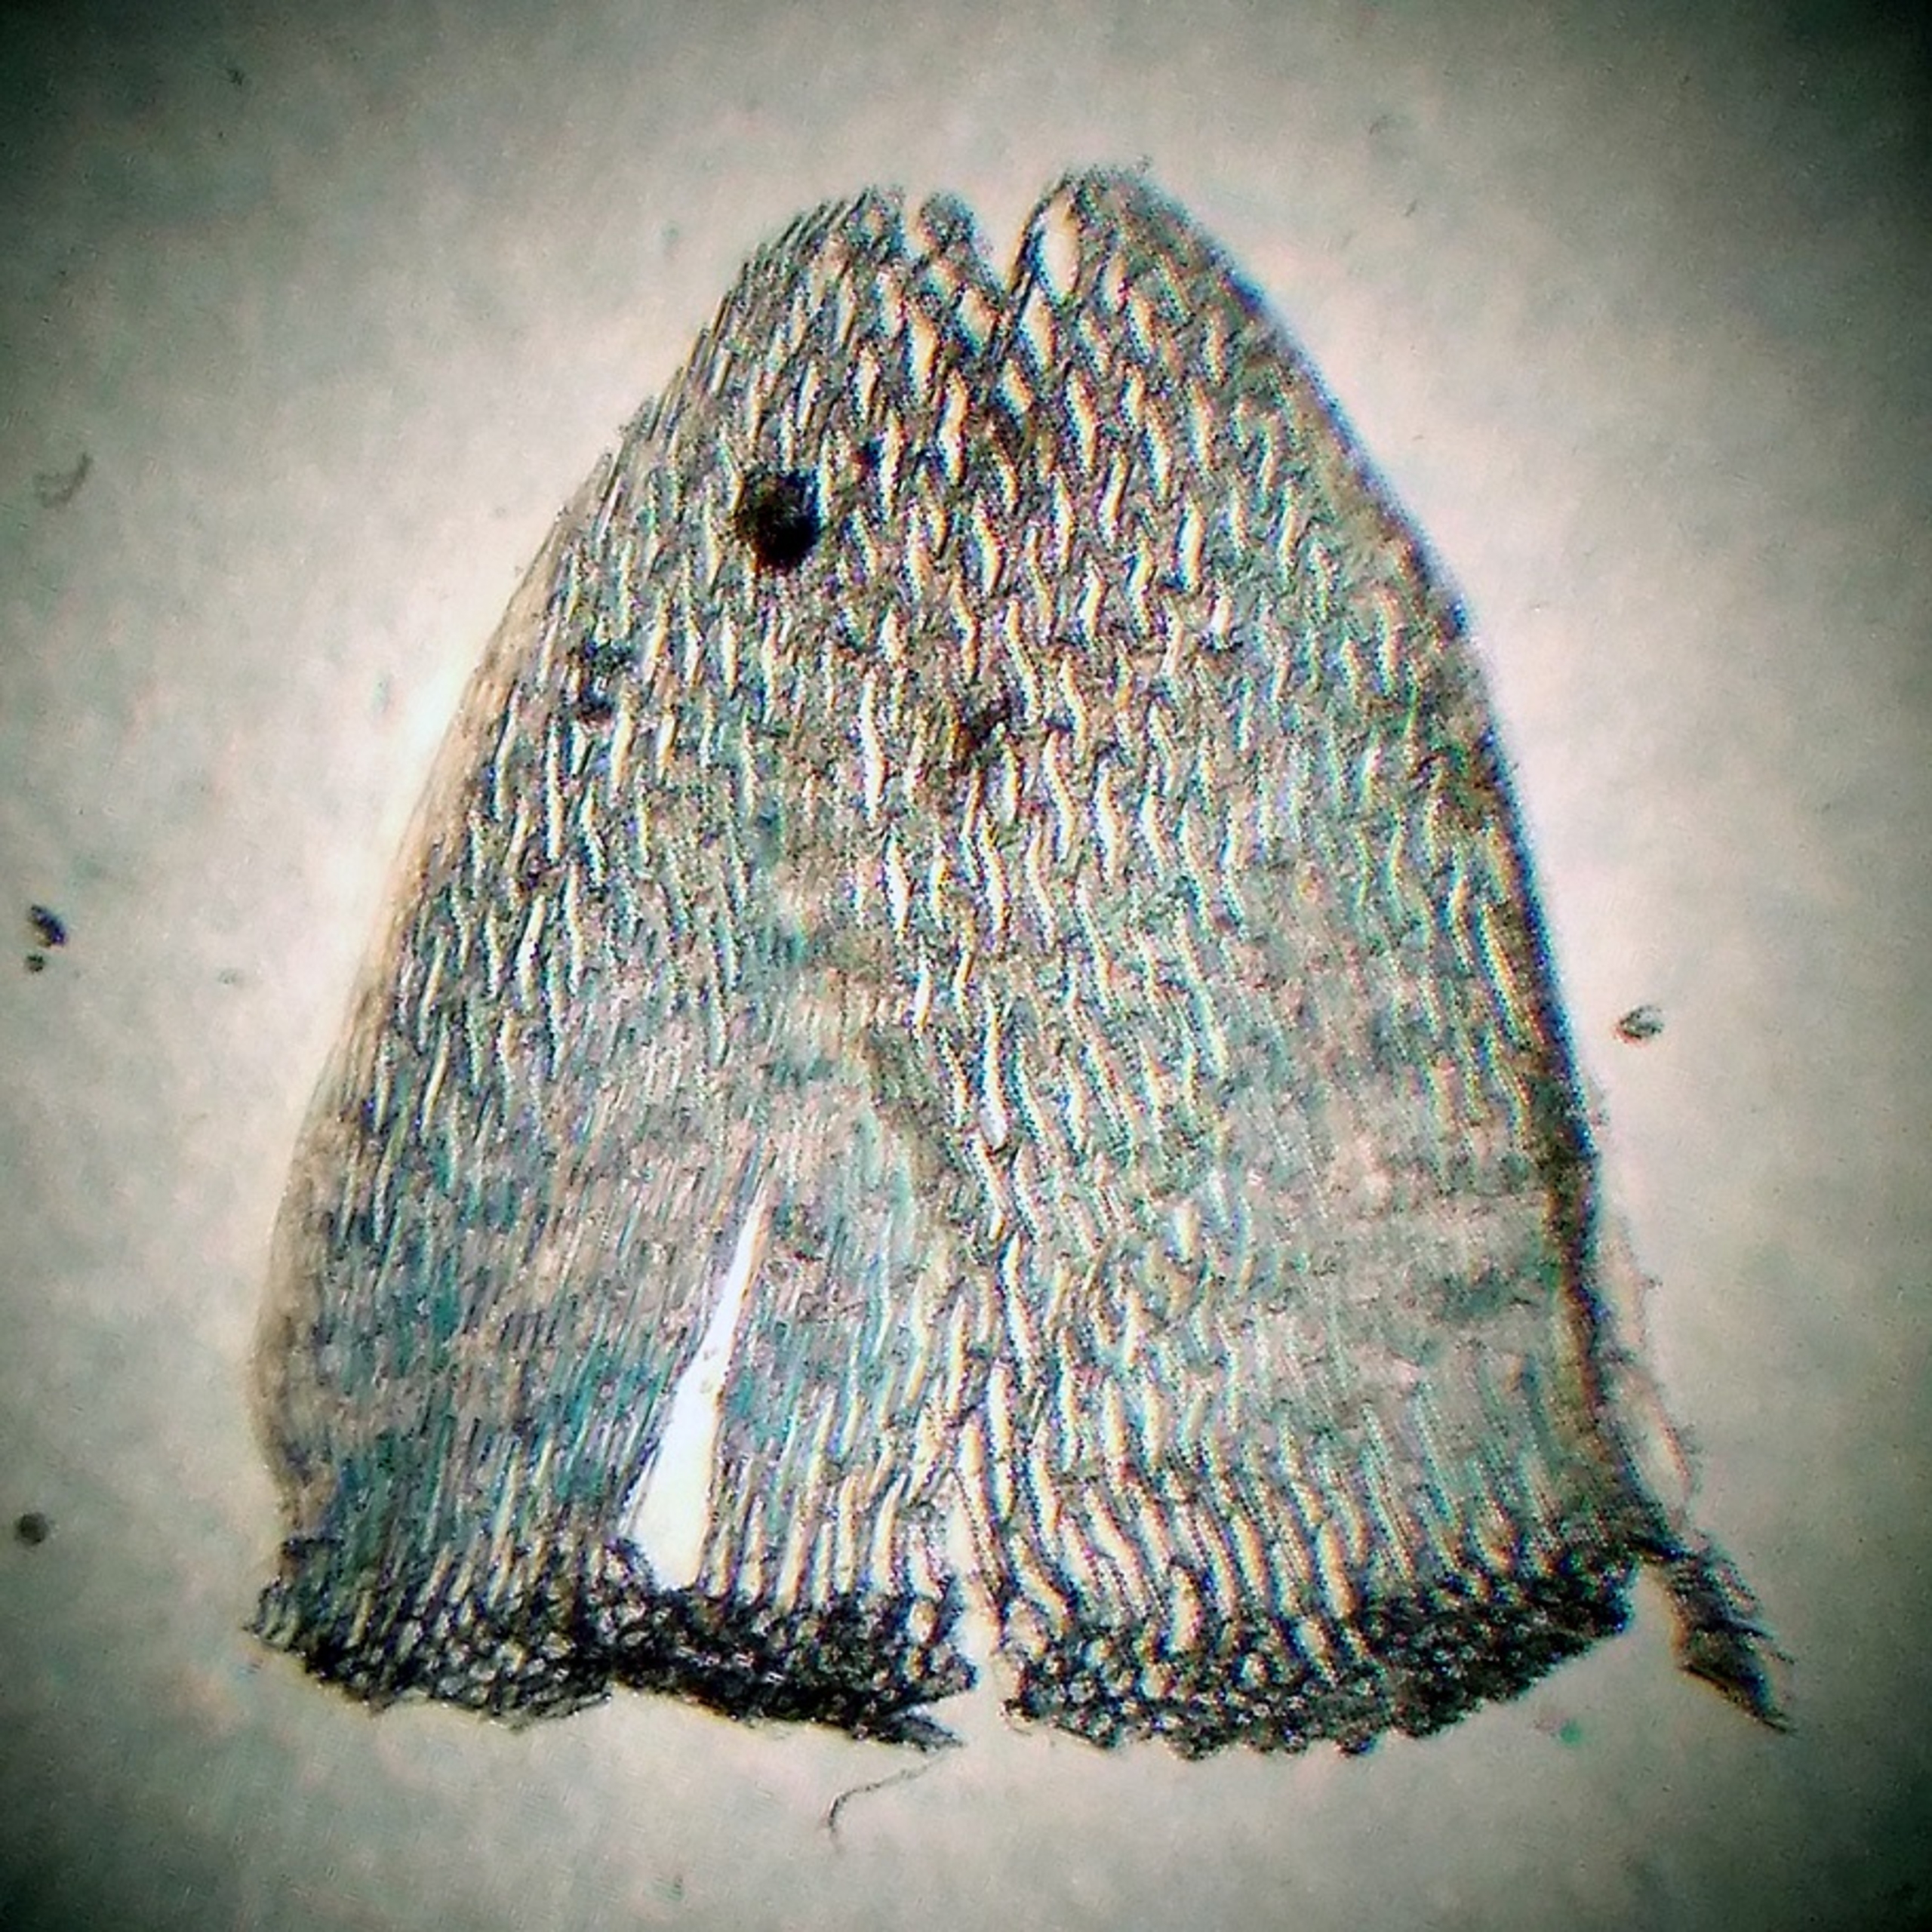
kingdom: Plantae
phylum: Bryophyta
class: Sphagnopsida
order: Sphagnales
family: Sphagnaceae
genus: Sphagnum
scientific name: Sphagnum flexuosum
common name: Kuplet tørvemos
